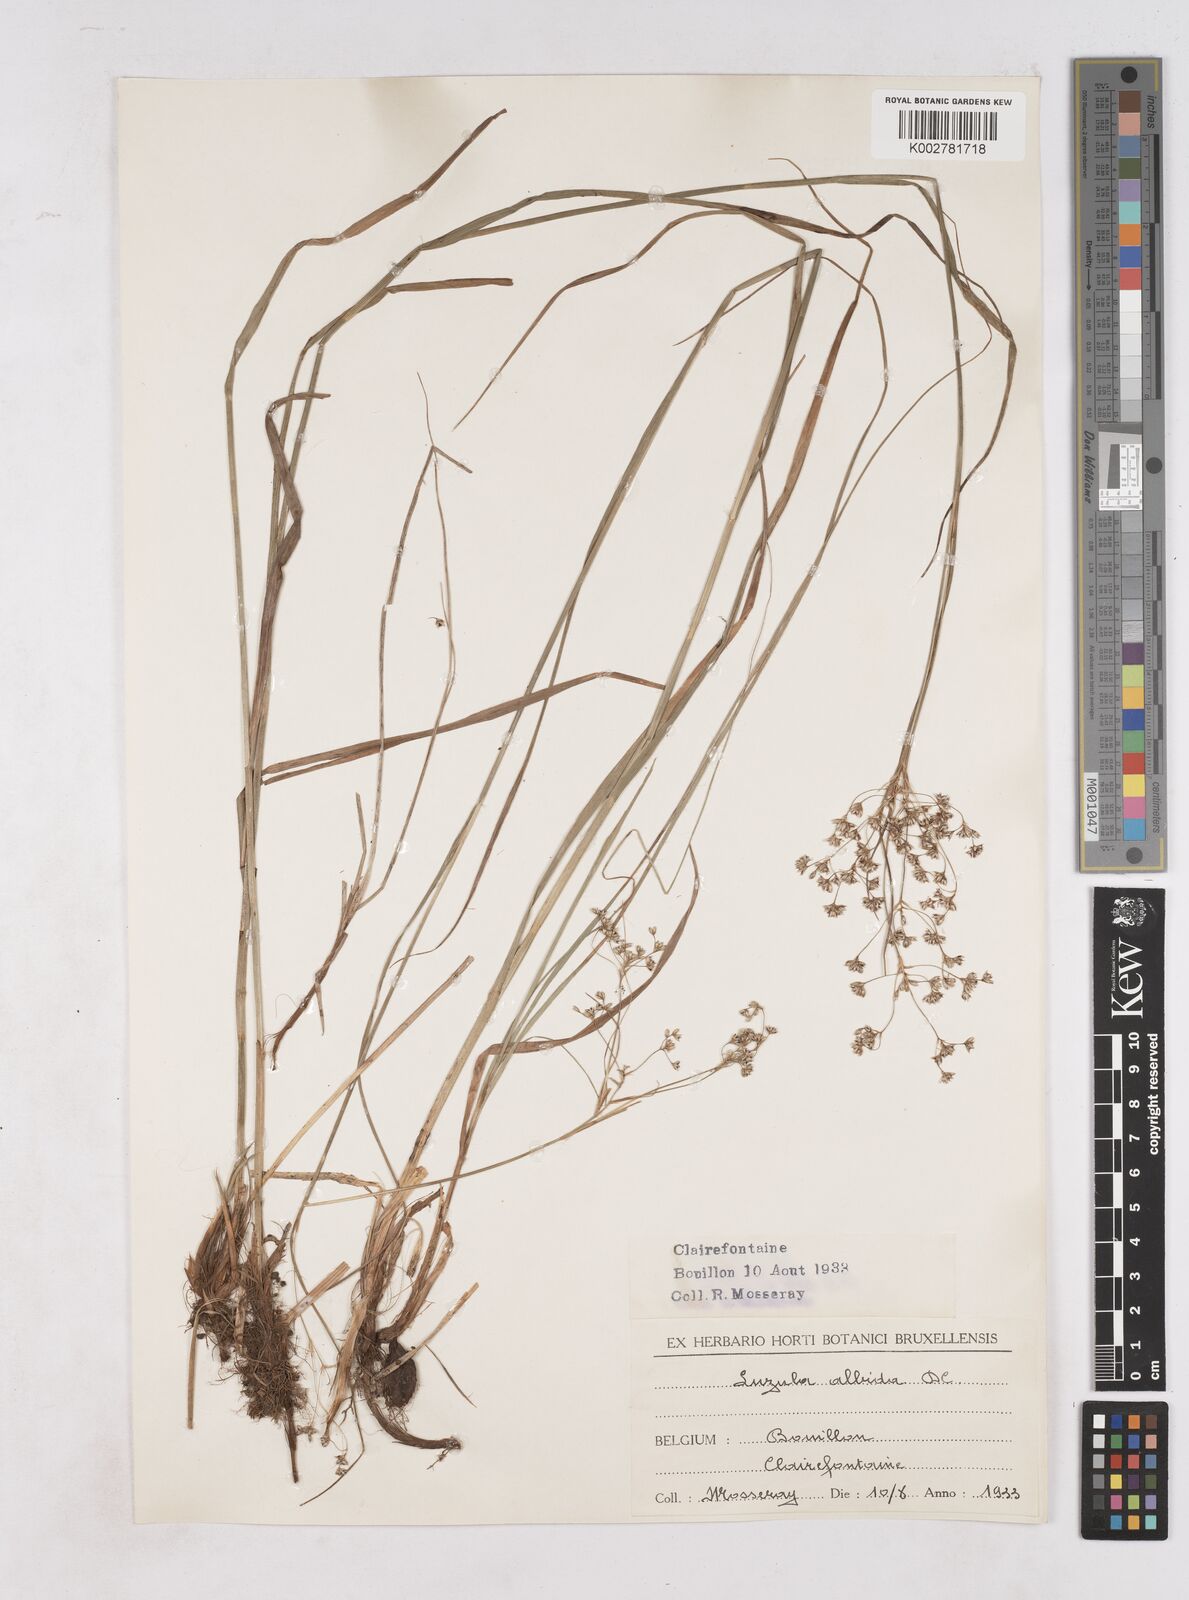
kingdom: Plantae
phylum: Tracheophyta
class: Liliopsida
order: Poales
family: Juncaceae
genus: Luzula
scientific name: Luzula luzuloides
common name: White wood-rush
